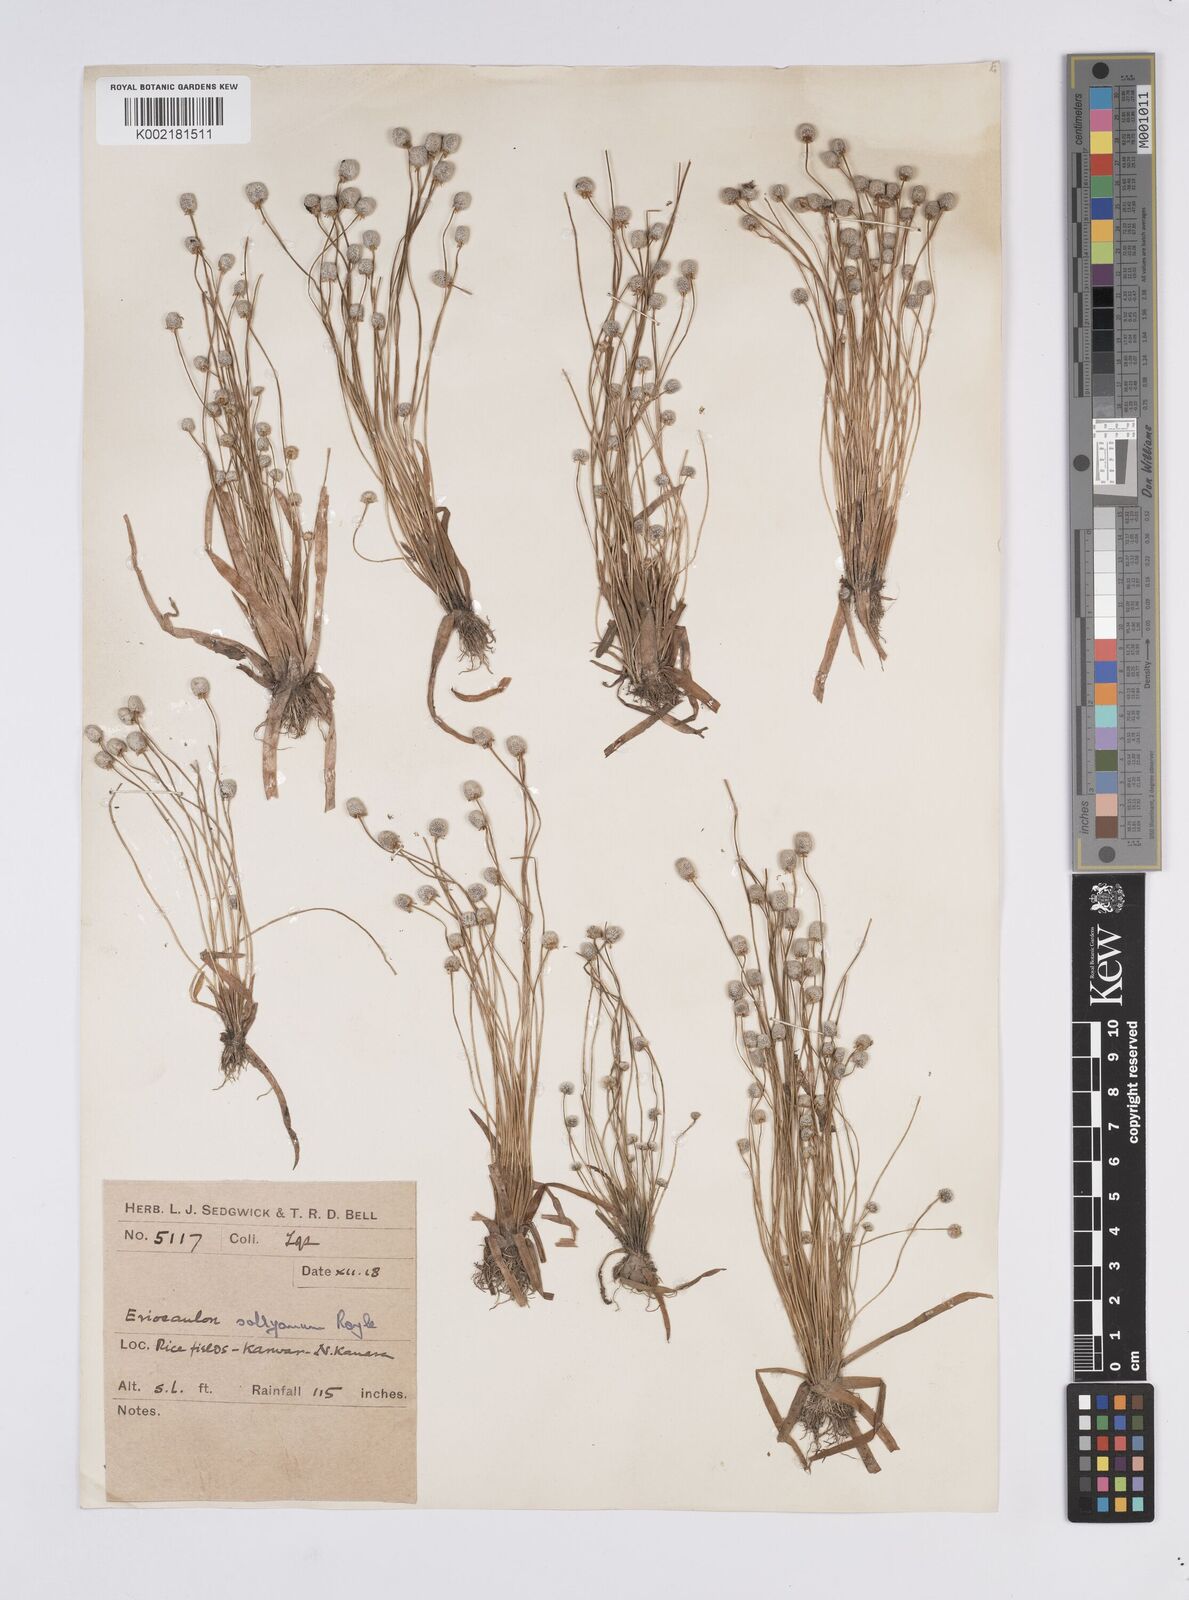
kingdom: Plantae
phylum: Tracheophyta
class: Liliopsida
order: Poales
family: Eriocaulaceae
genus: Eriocaulon
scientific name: Eriocaulon sollyanum
